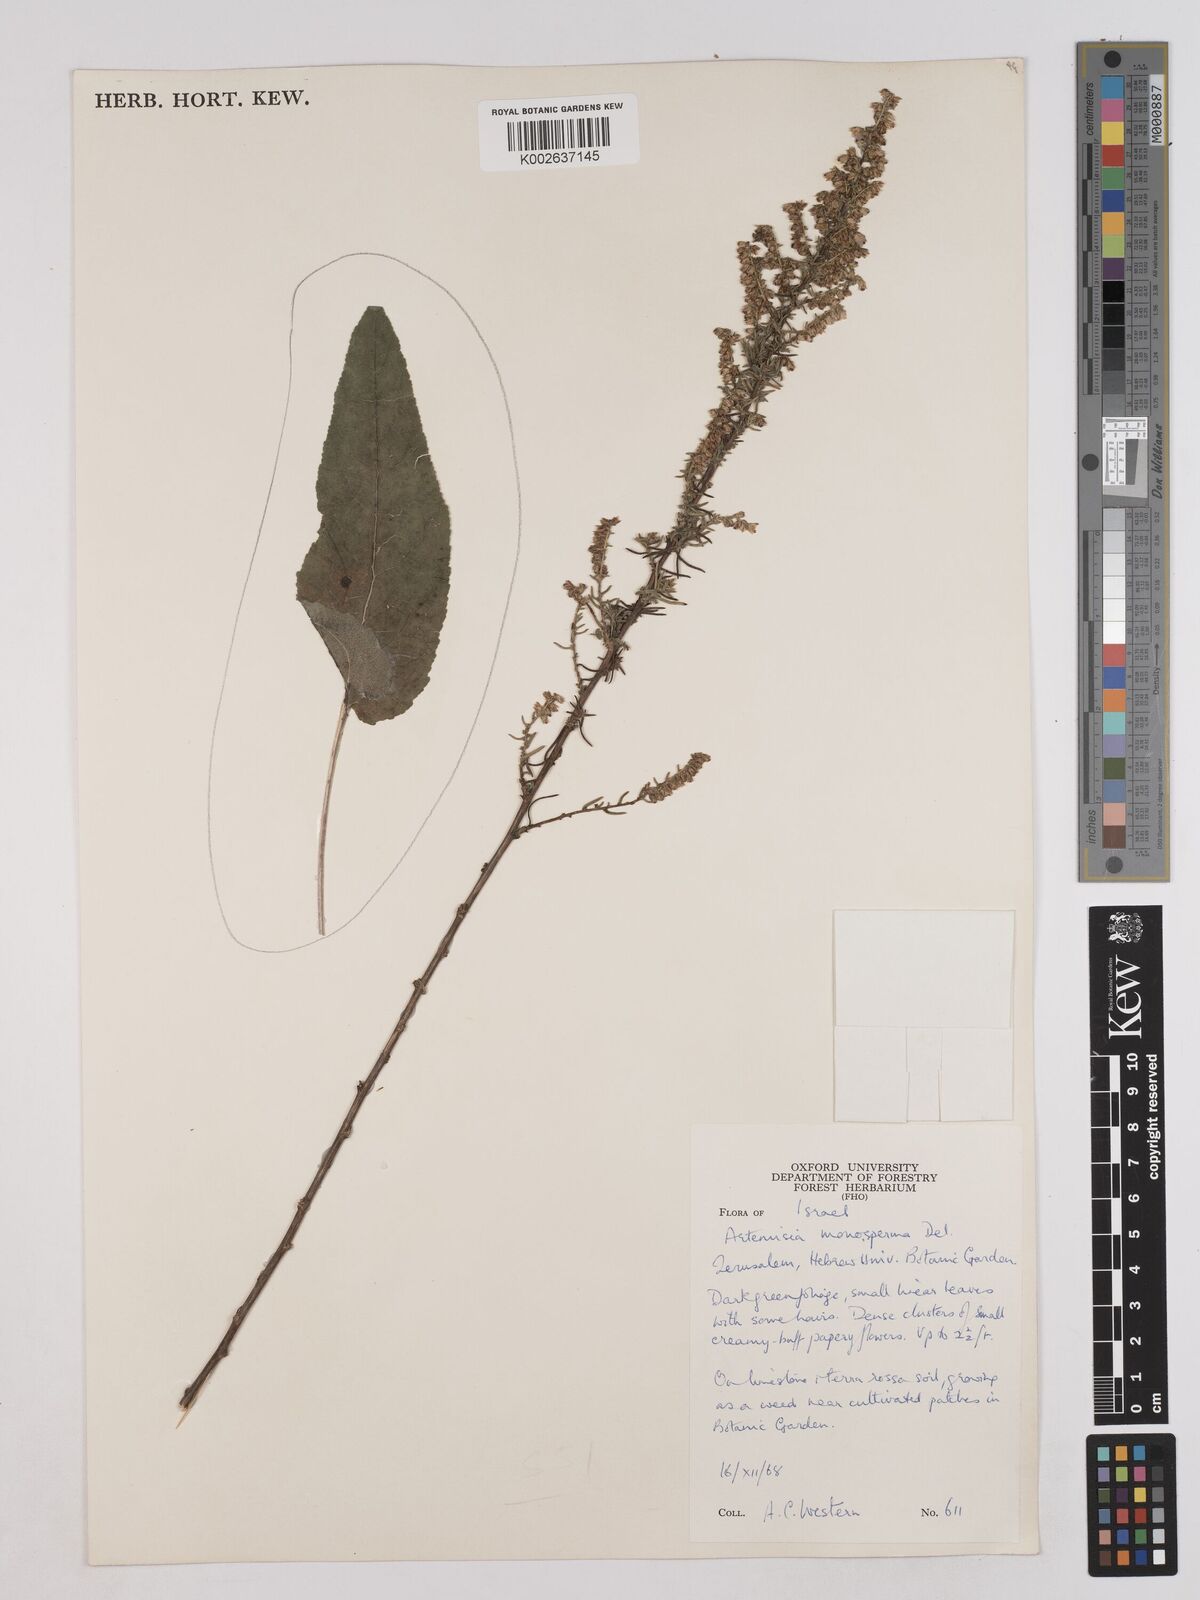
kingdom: Plantae
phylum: Tracheophyta
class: Magnoliopsida
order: Asterales
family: Asteraceae
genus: Artemisia
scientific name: Artemisia monosperma
